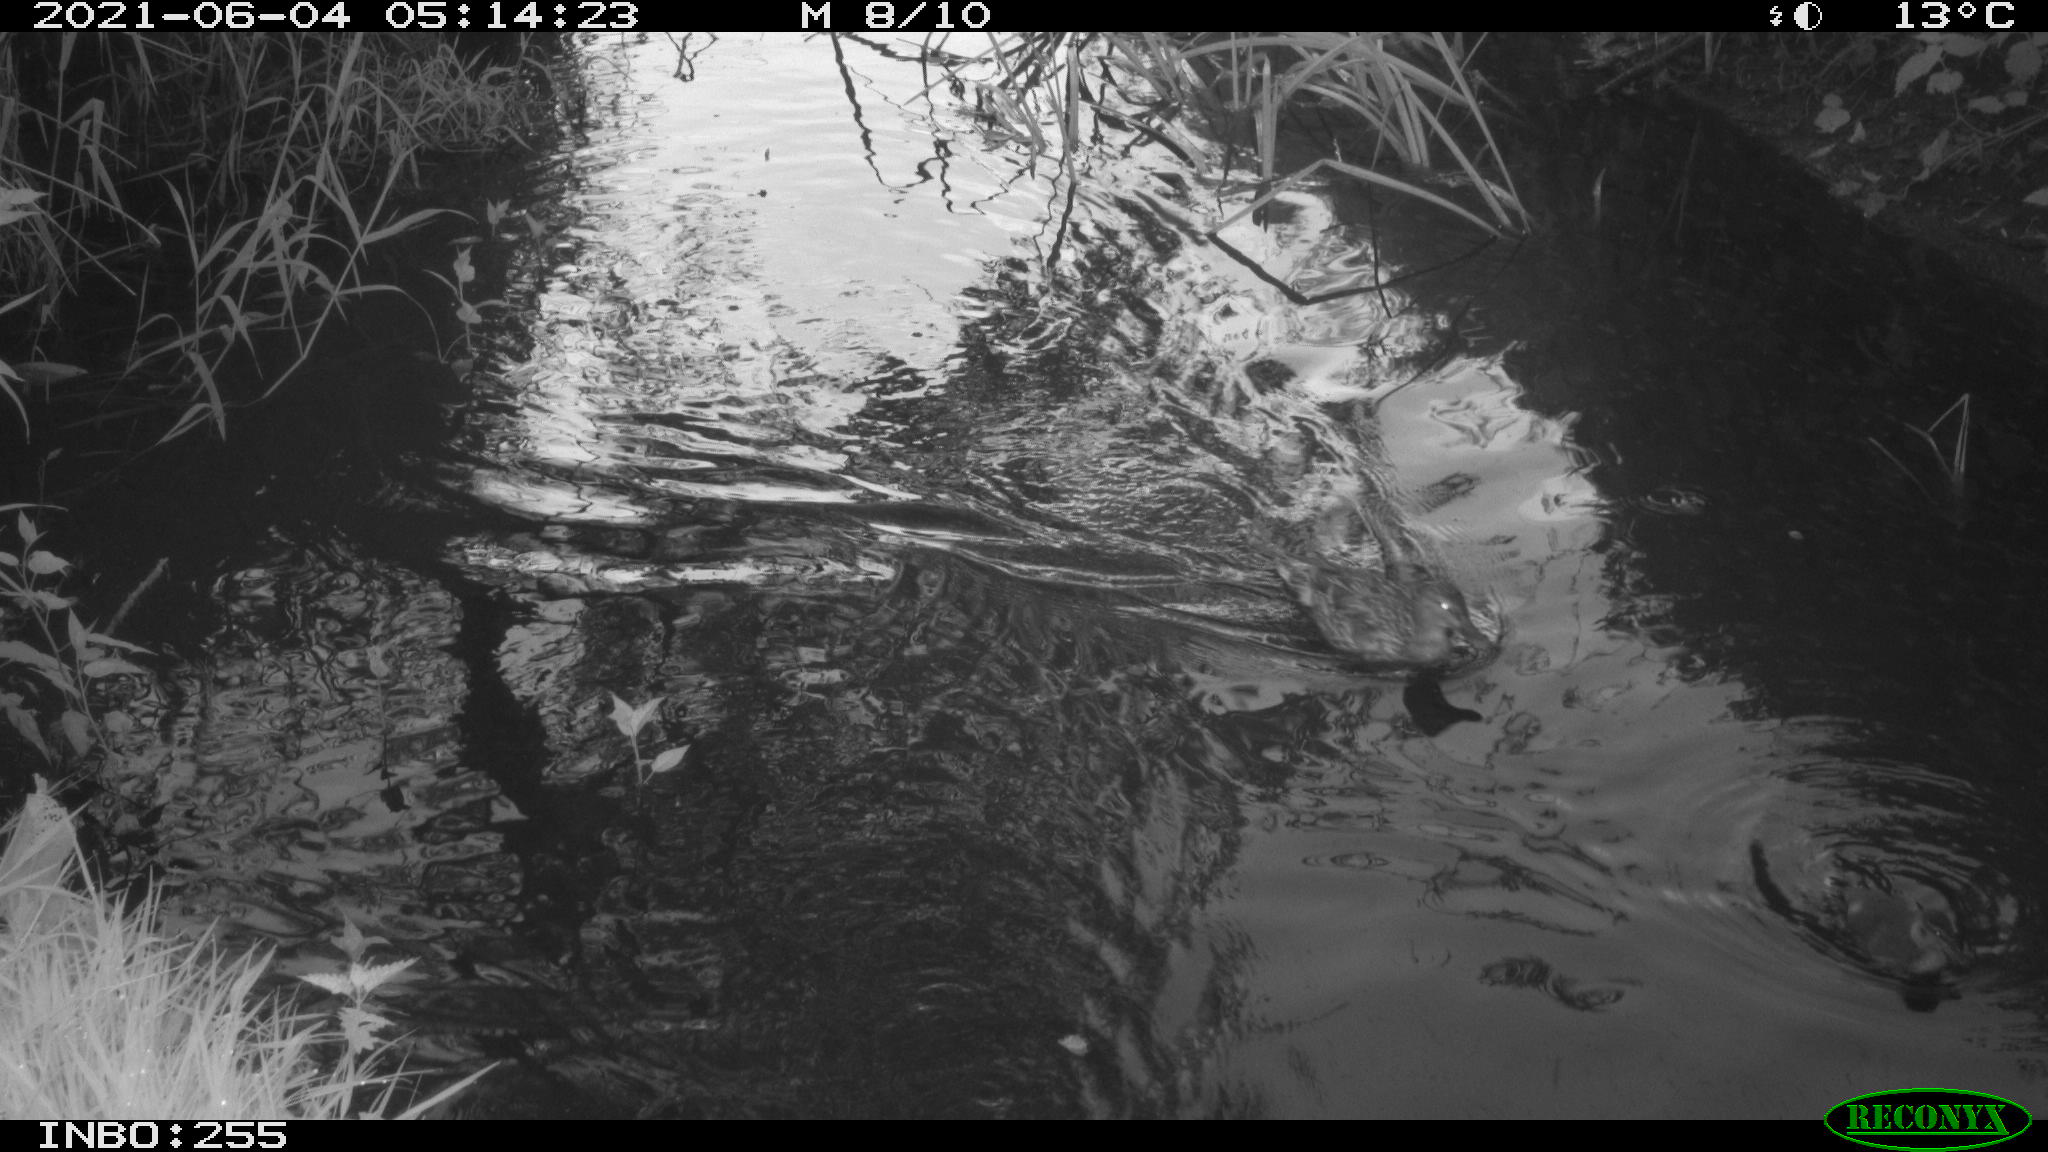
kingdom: Animalia
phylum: Chordata
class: Aves
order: Anseriformes
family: Anatidae
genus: Anas
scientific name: Anas platyrhynchos
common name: Mallard
